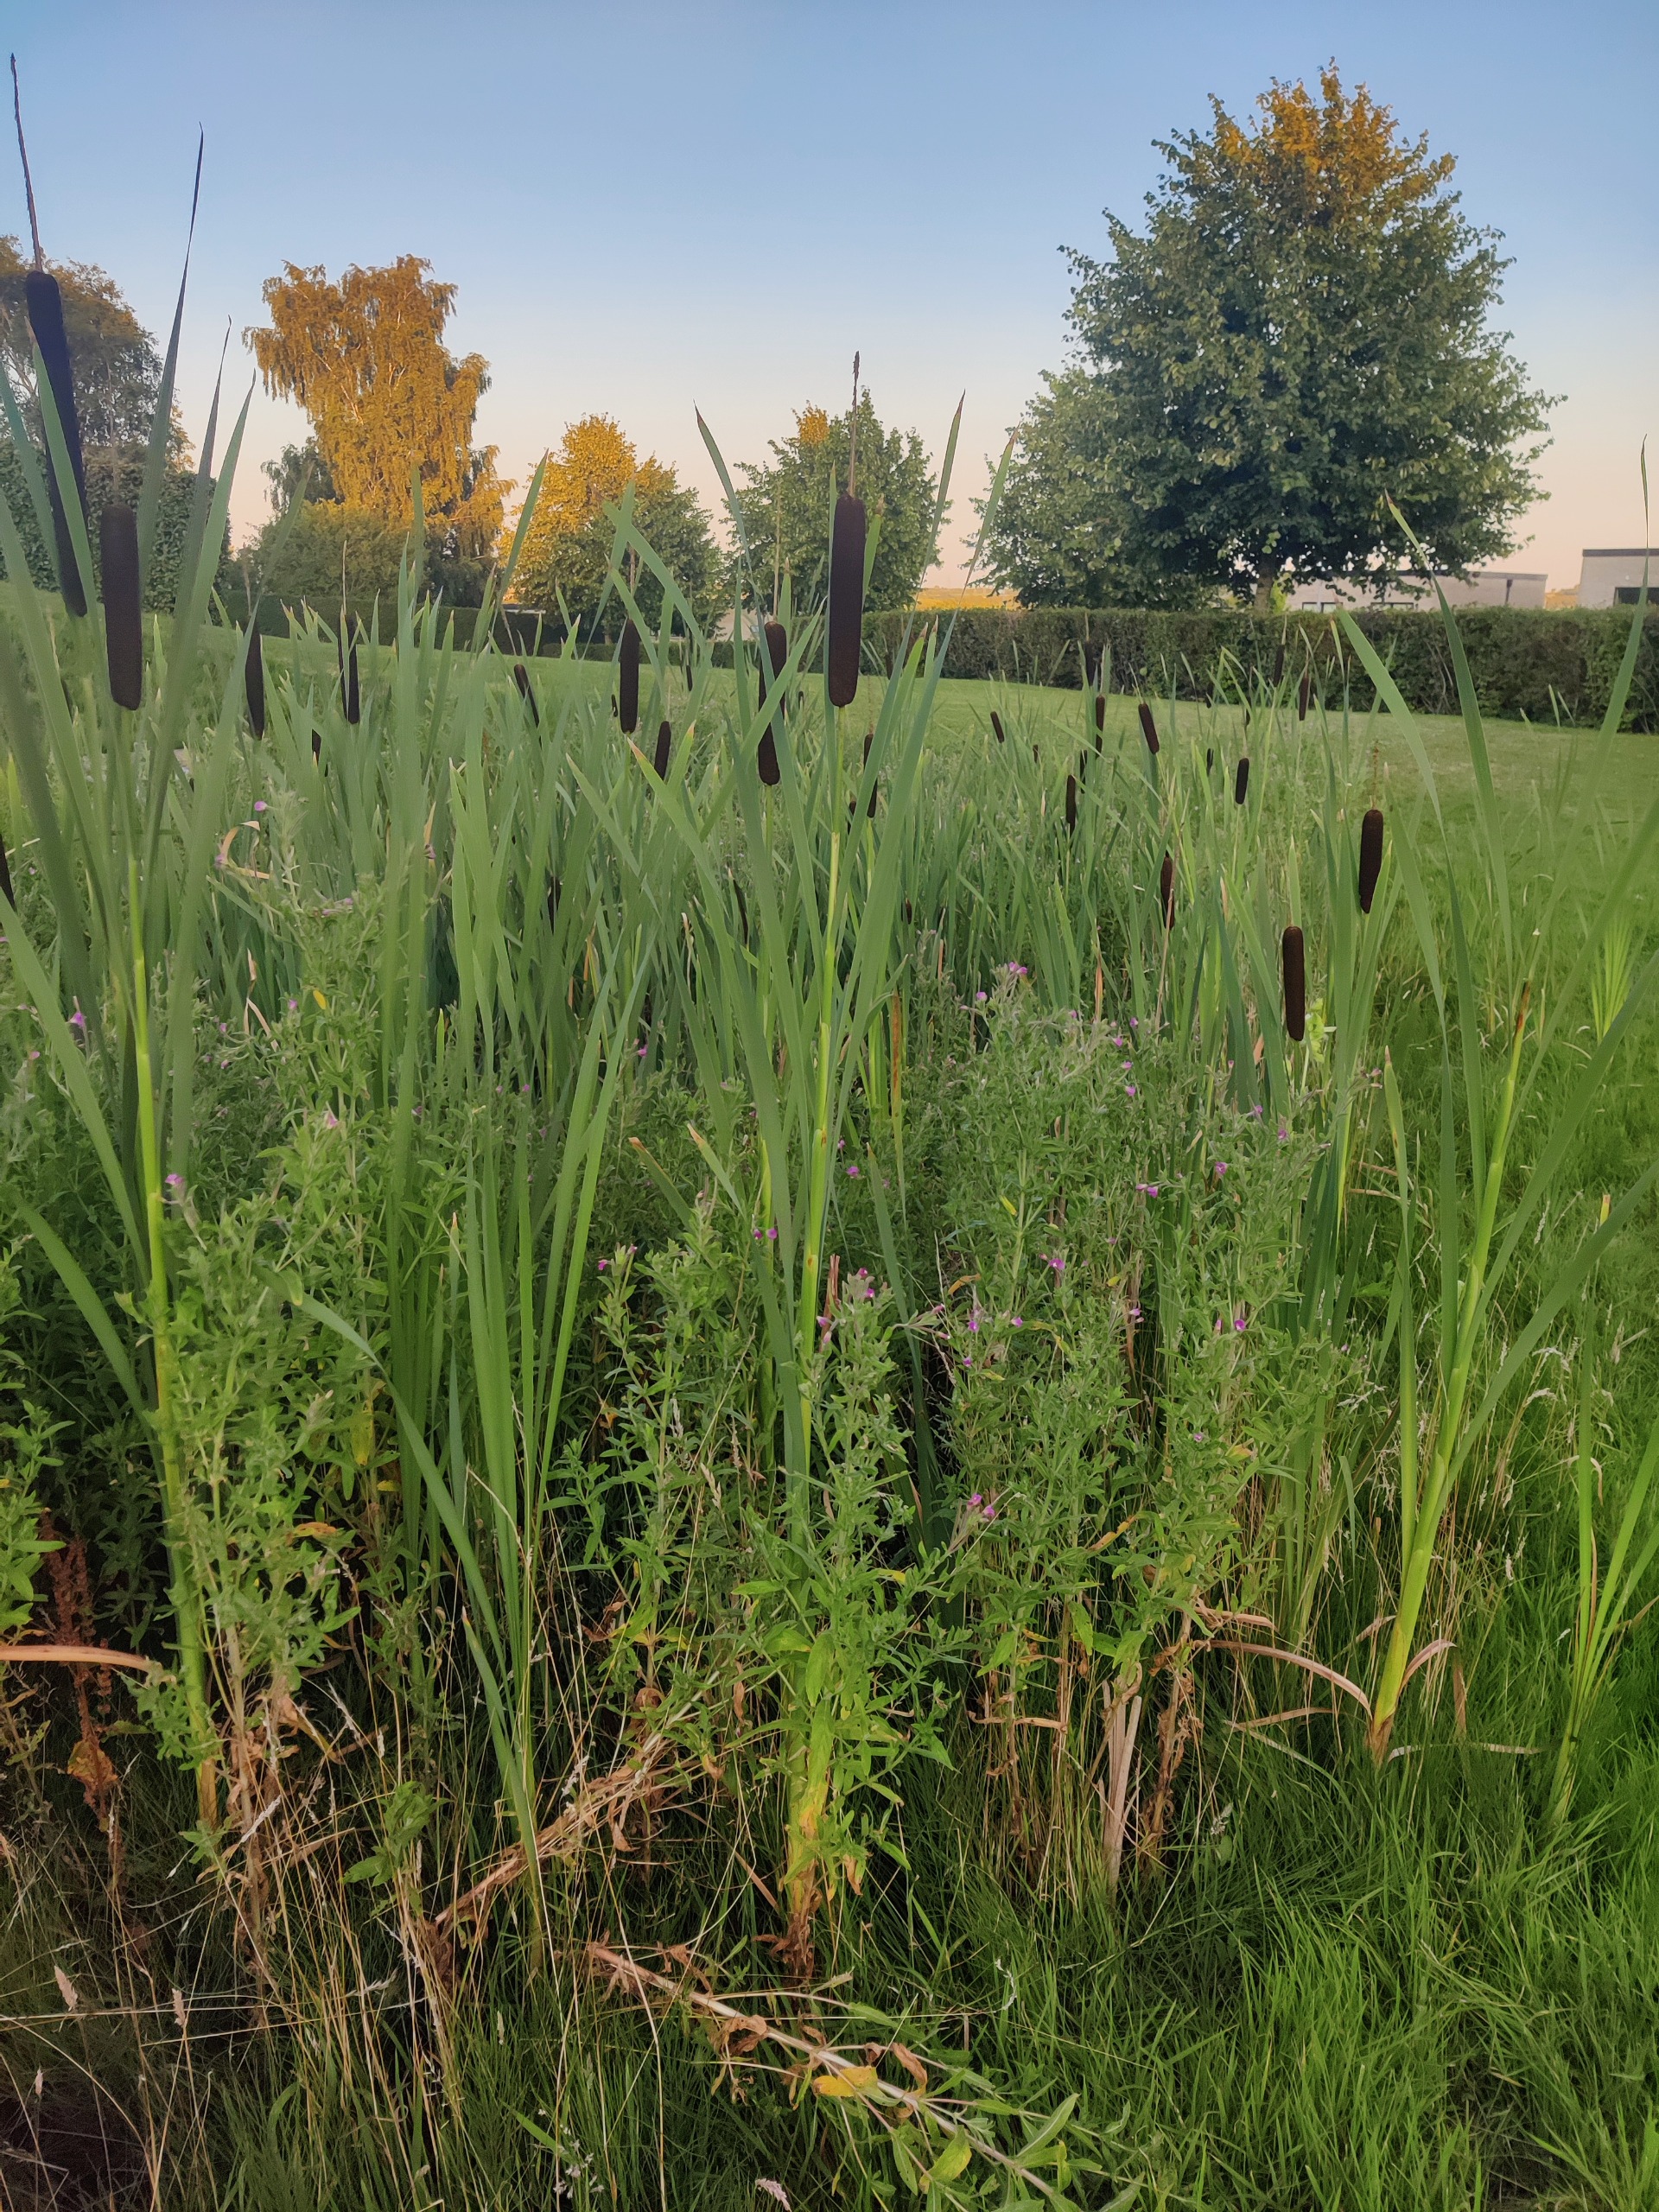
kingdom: Plantae
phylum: Tracheophyta
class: Liliopsida
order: Poales
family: Typhaceae
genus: Typha
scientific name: Typha latifolia
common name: Bredbladet dunhammer
